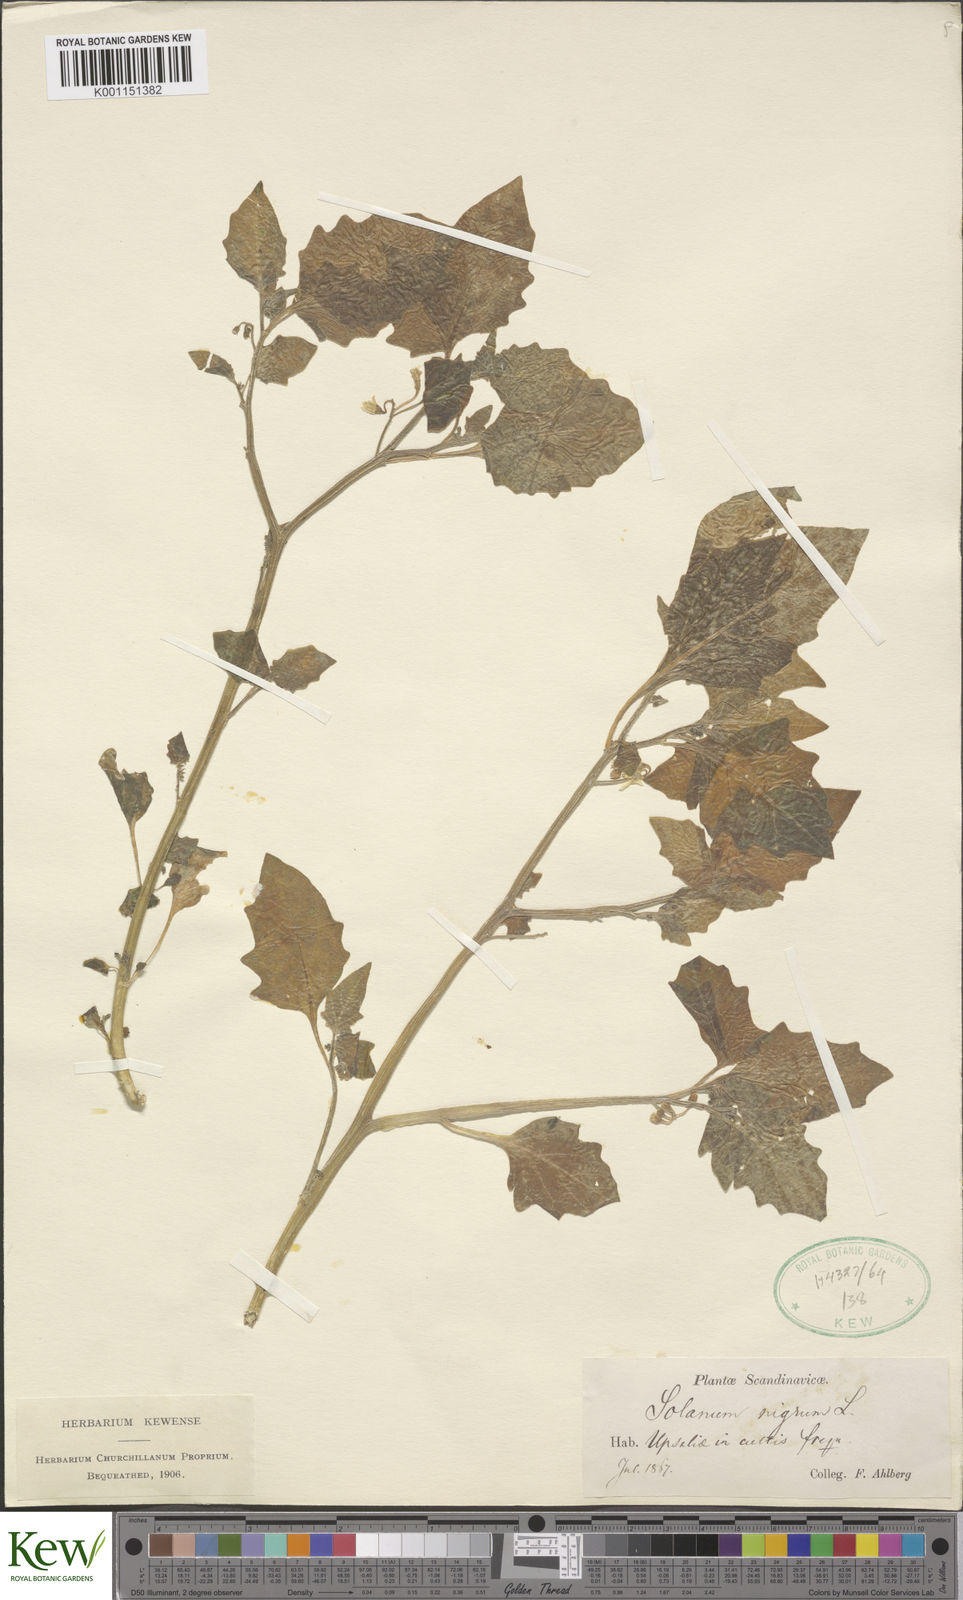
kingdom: Plantae
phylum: Tracheophyta
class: Magnoliopsida
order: Solanales
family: Solanaceae
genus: Solanum
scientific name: Solanum nigrum
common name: Black nightshade
